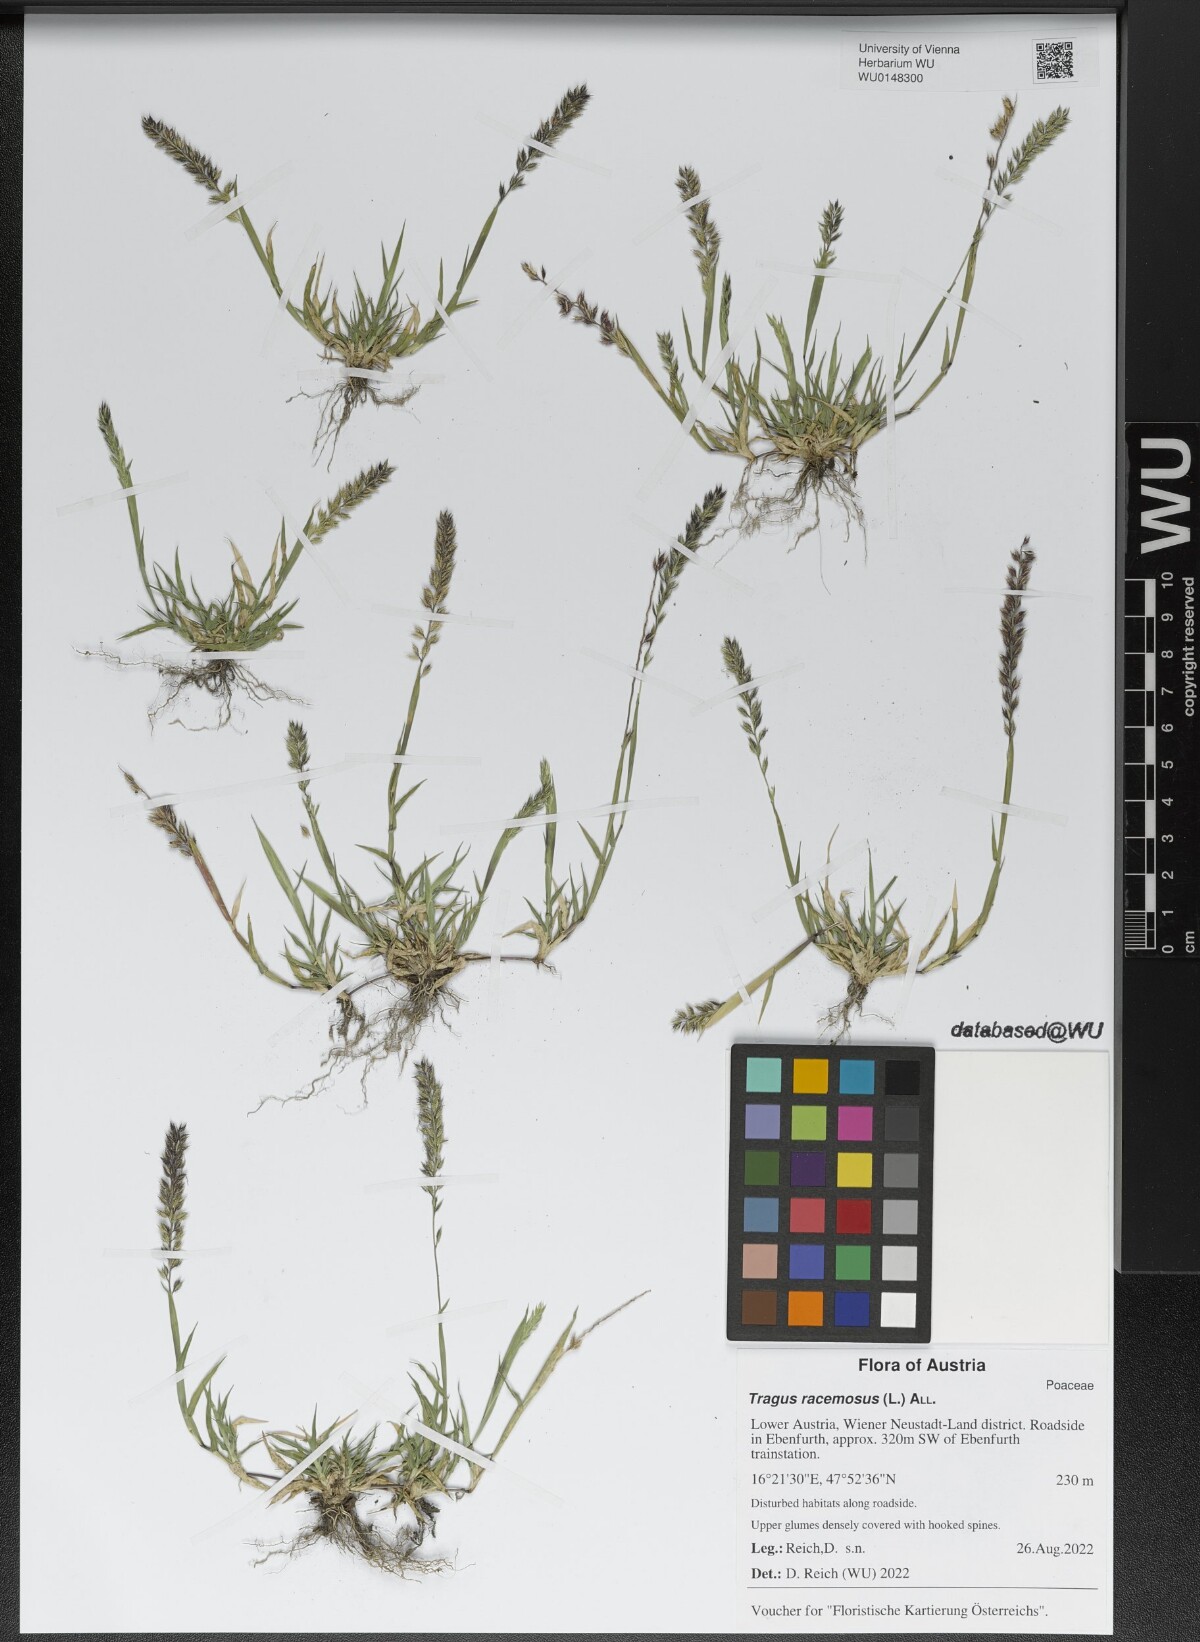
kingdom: Plantae
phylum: Tracheophyta
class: Liliopsida
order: Poales
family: Poaceae
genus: Tragus
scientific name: Tragus racemosus
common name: European bur-grass
